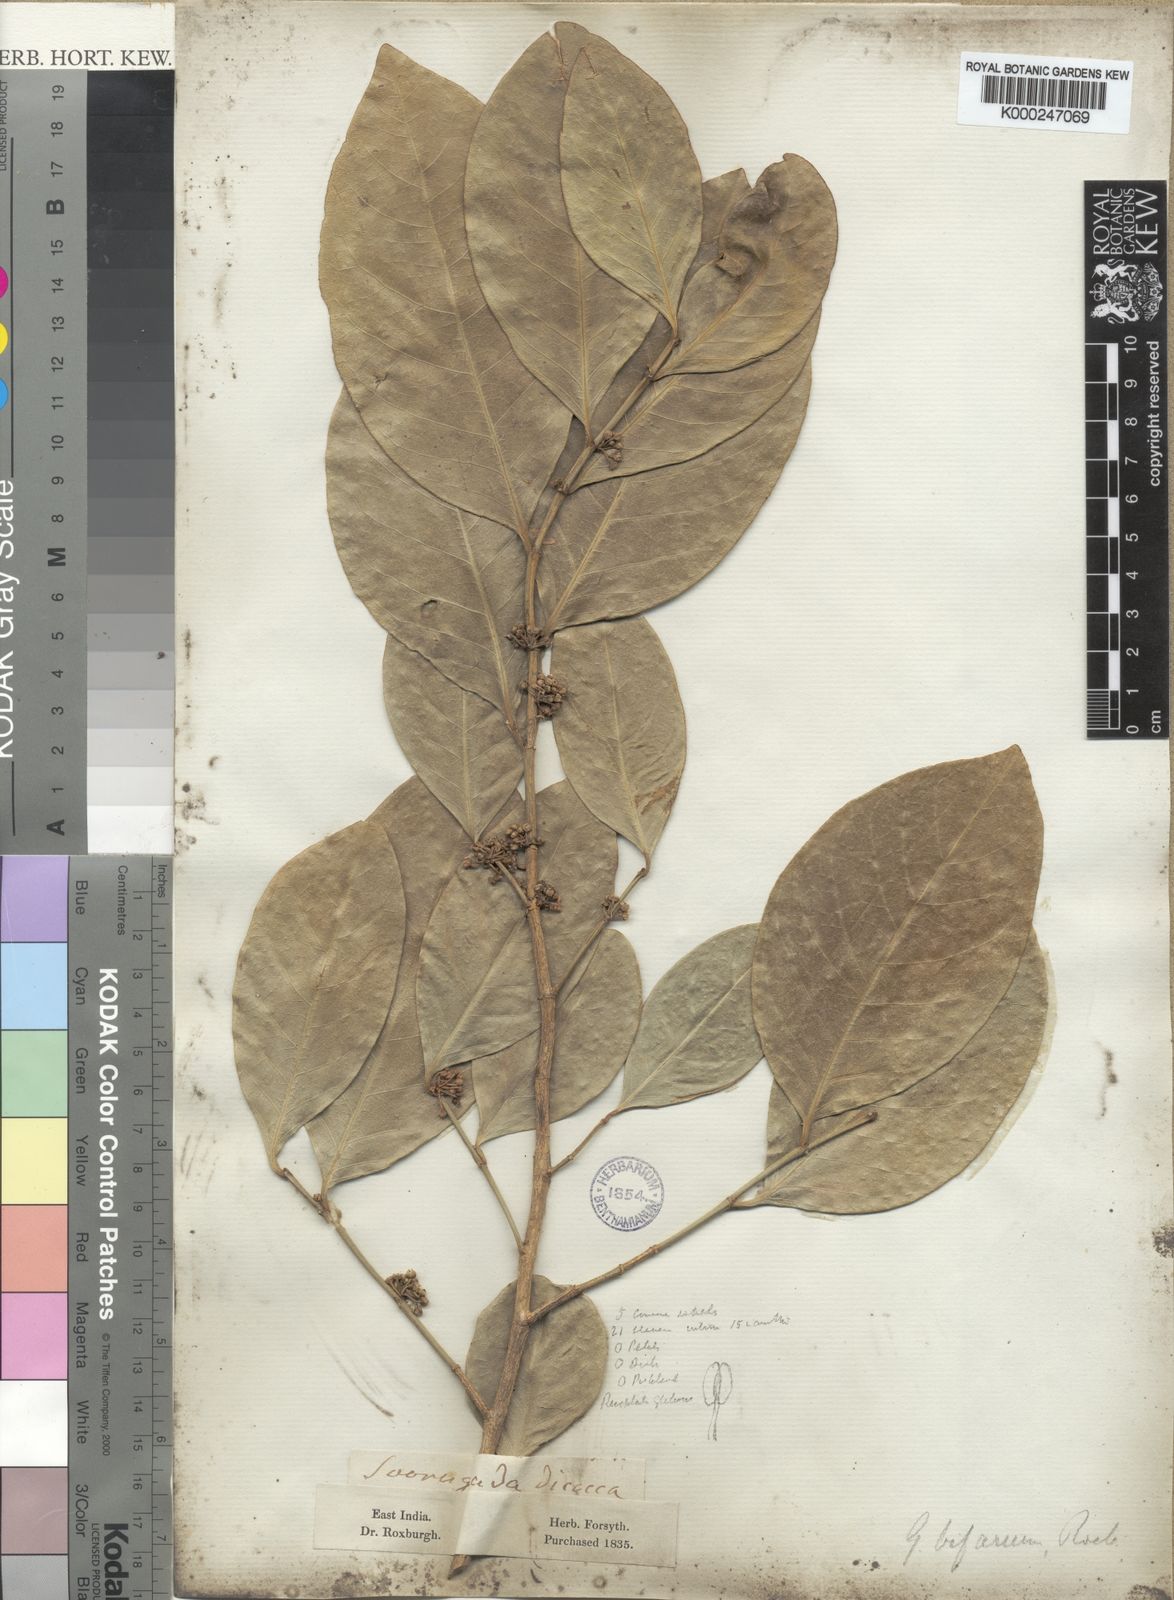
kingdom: Plantae
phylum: Tracheophyta
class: Magnoliopsida
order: Malpighiales
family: Euphorbiaceae
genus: Suregada
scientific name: Suregada bifaria
